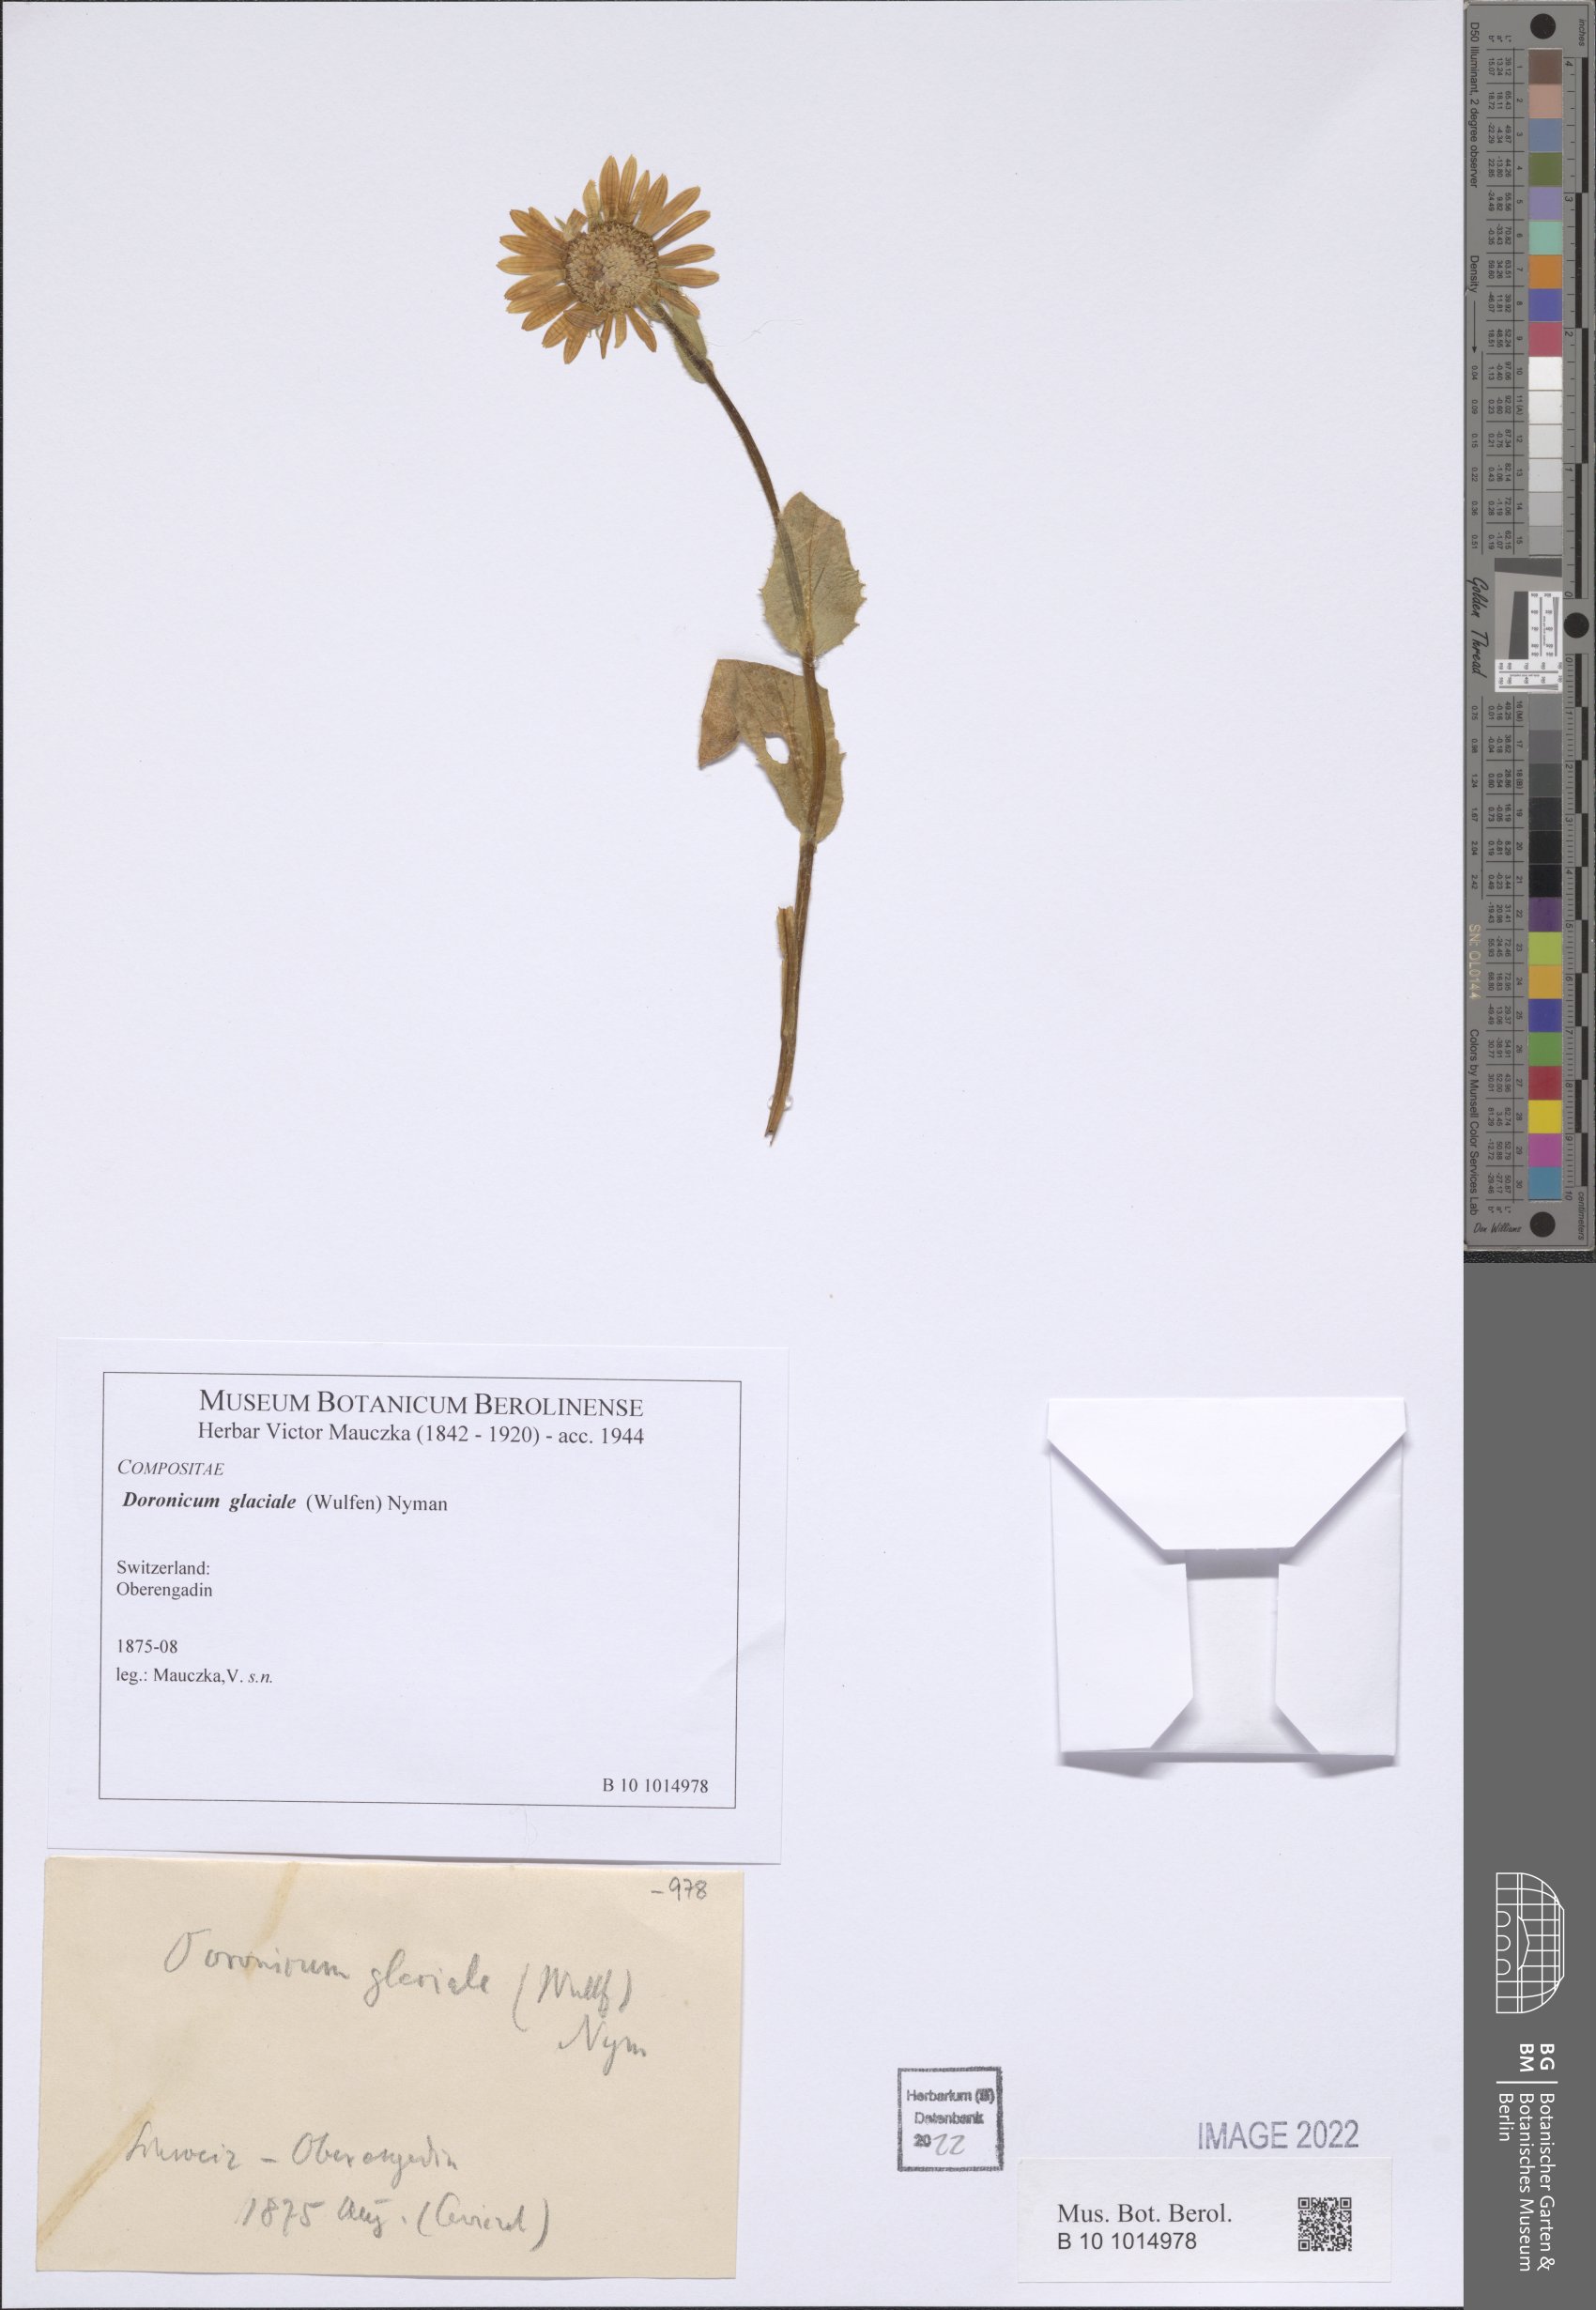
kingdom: Plantae
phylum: Tracheophyta
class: Magnoliopsida
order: Asterales
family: Asteraceae
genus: Doronicum
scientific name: Doronicum glaciale
